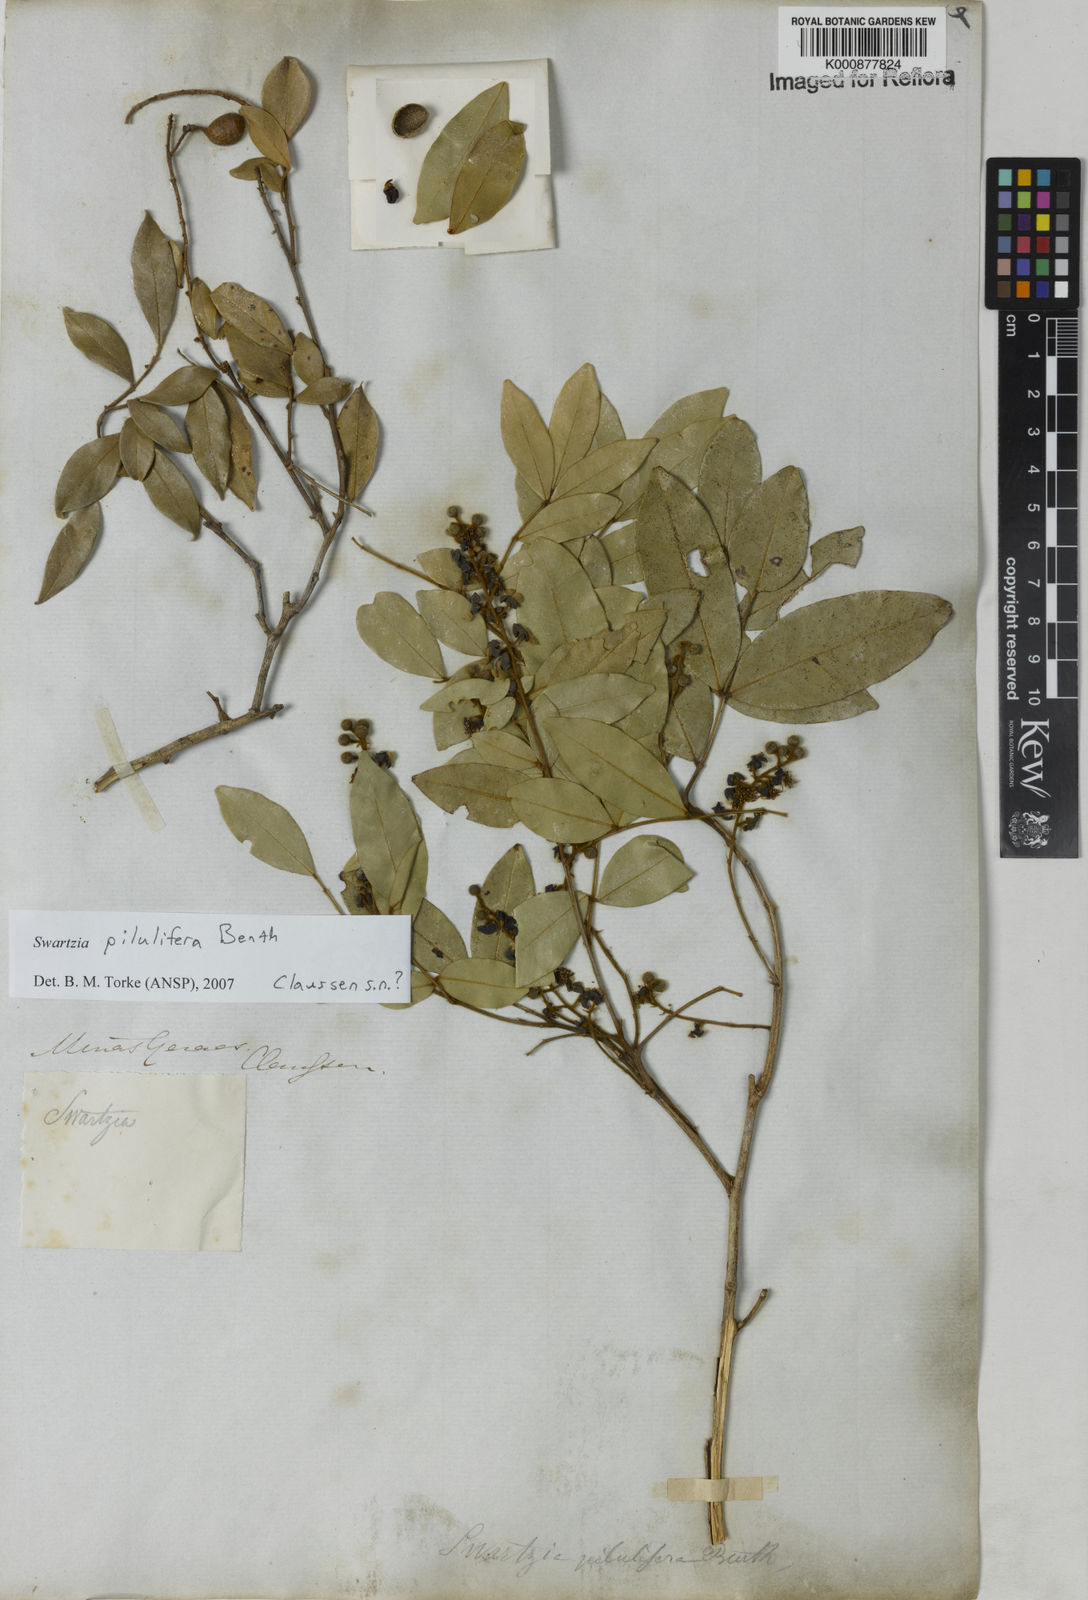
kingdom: Plantae
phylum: Tracheophyta
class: Magnoliopsida
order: Fabales
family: Fabaceae
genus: Swartzia
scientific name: Swartzia pilulifera
